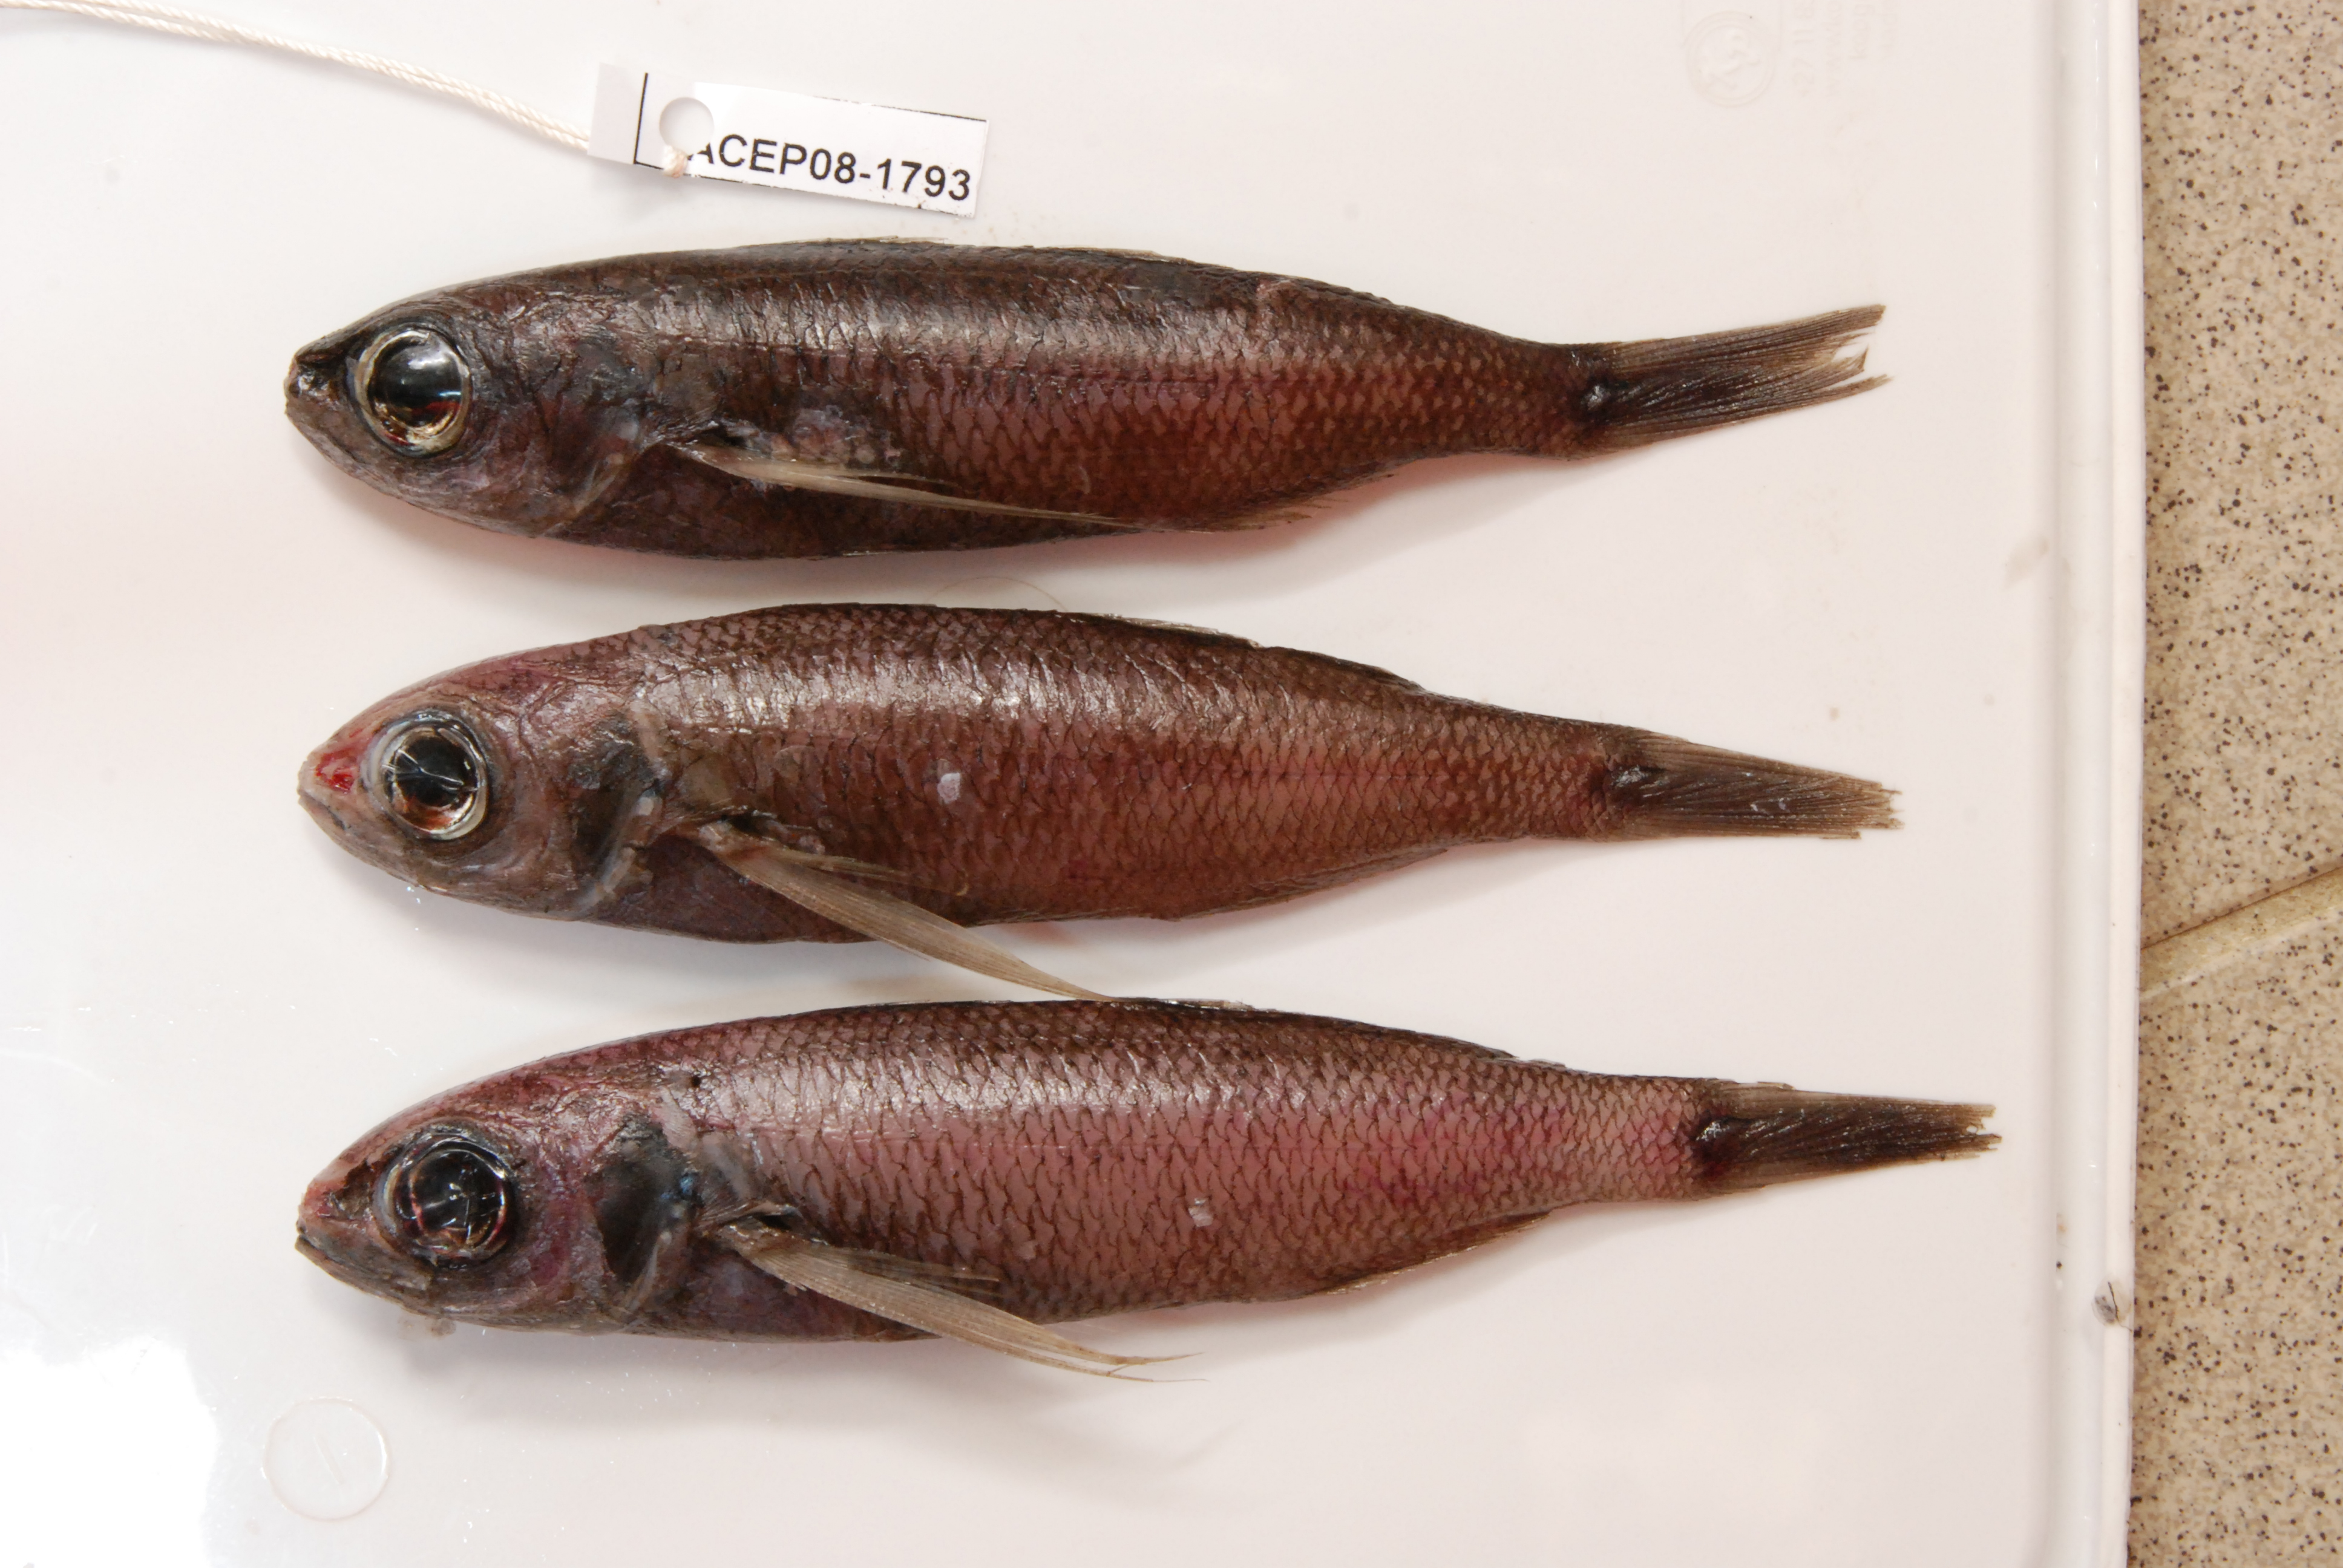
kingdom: Animalia
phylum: Chordata
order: Perciformes
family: Nomeidae
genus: Cubiceps
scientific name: Cubiceps
